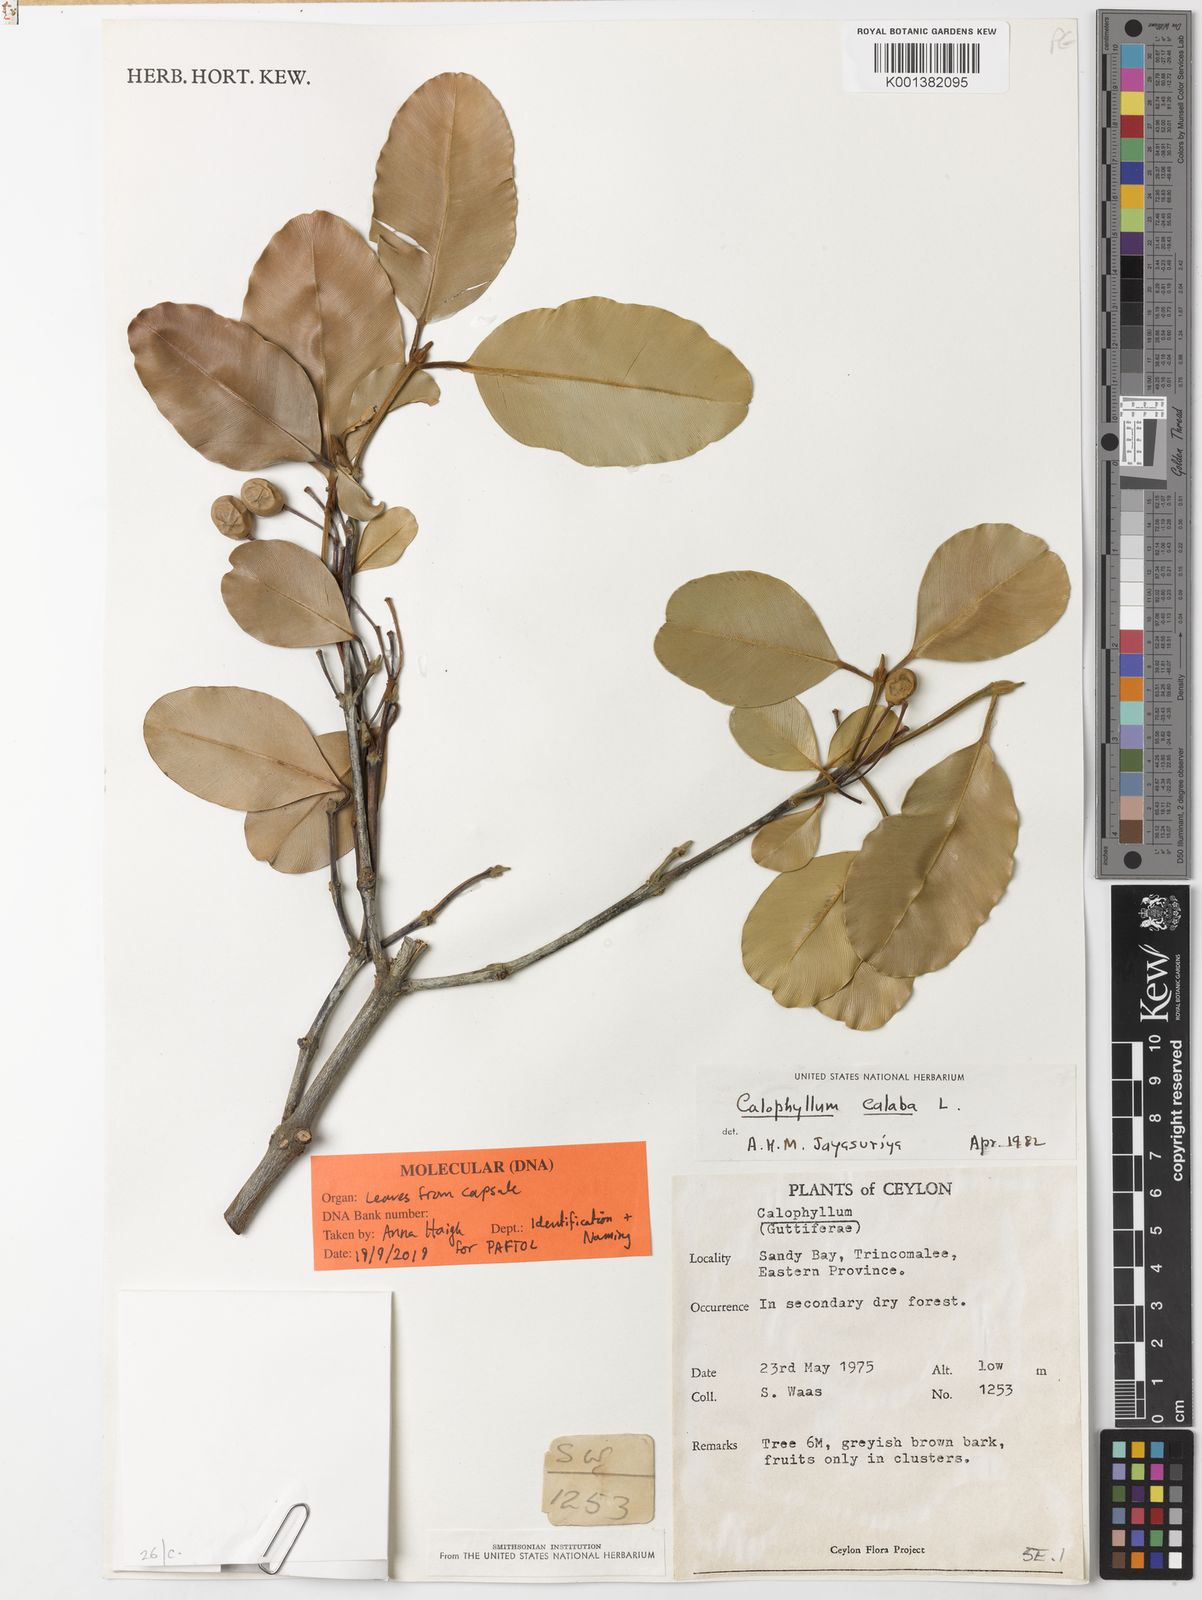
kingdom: Plantae
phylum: Tracheophyta
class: Magnoliopsida
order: Malpighiales
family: Calophyllaceae
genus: Calophyllum
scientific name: Calophyllum calaba
